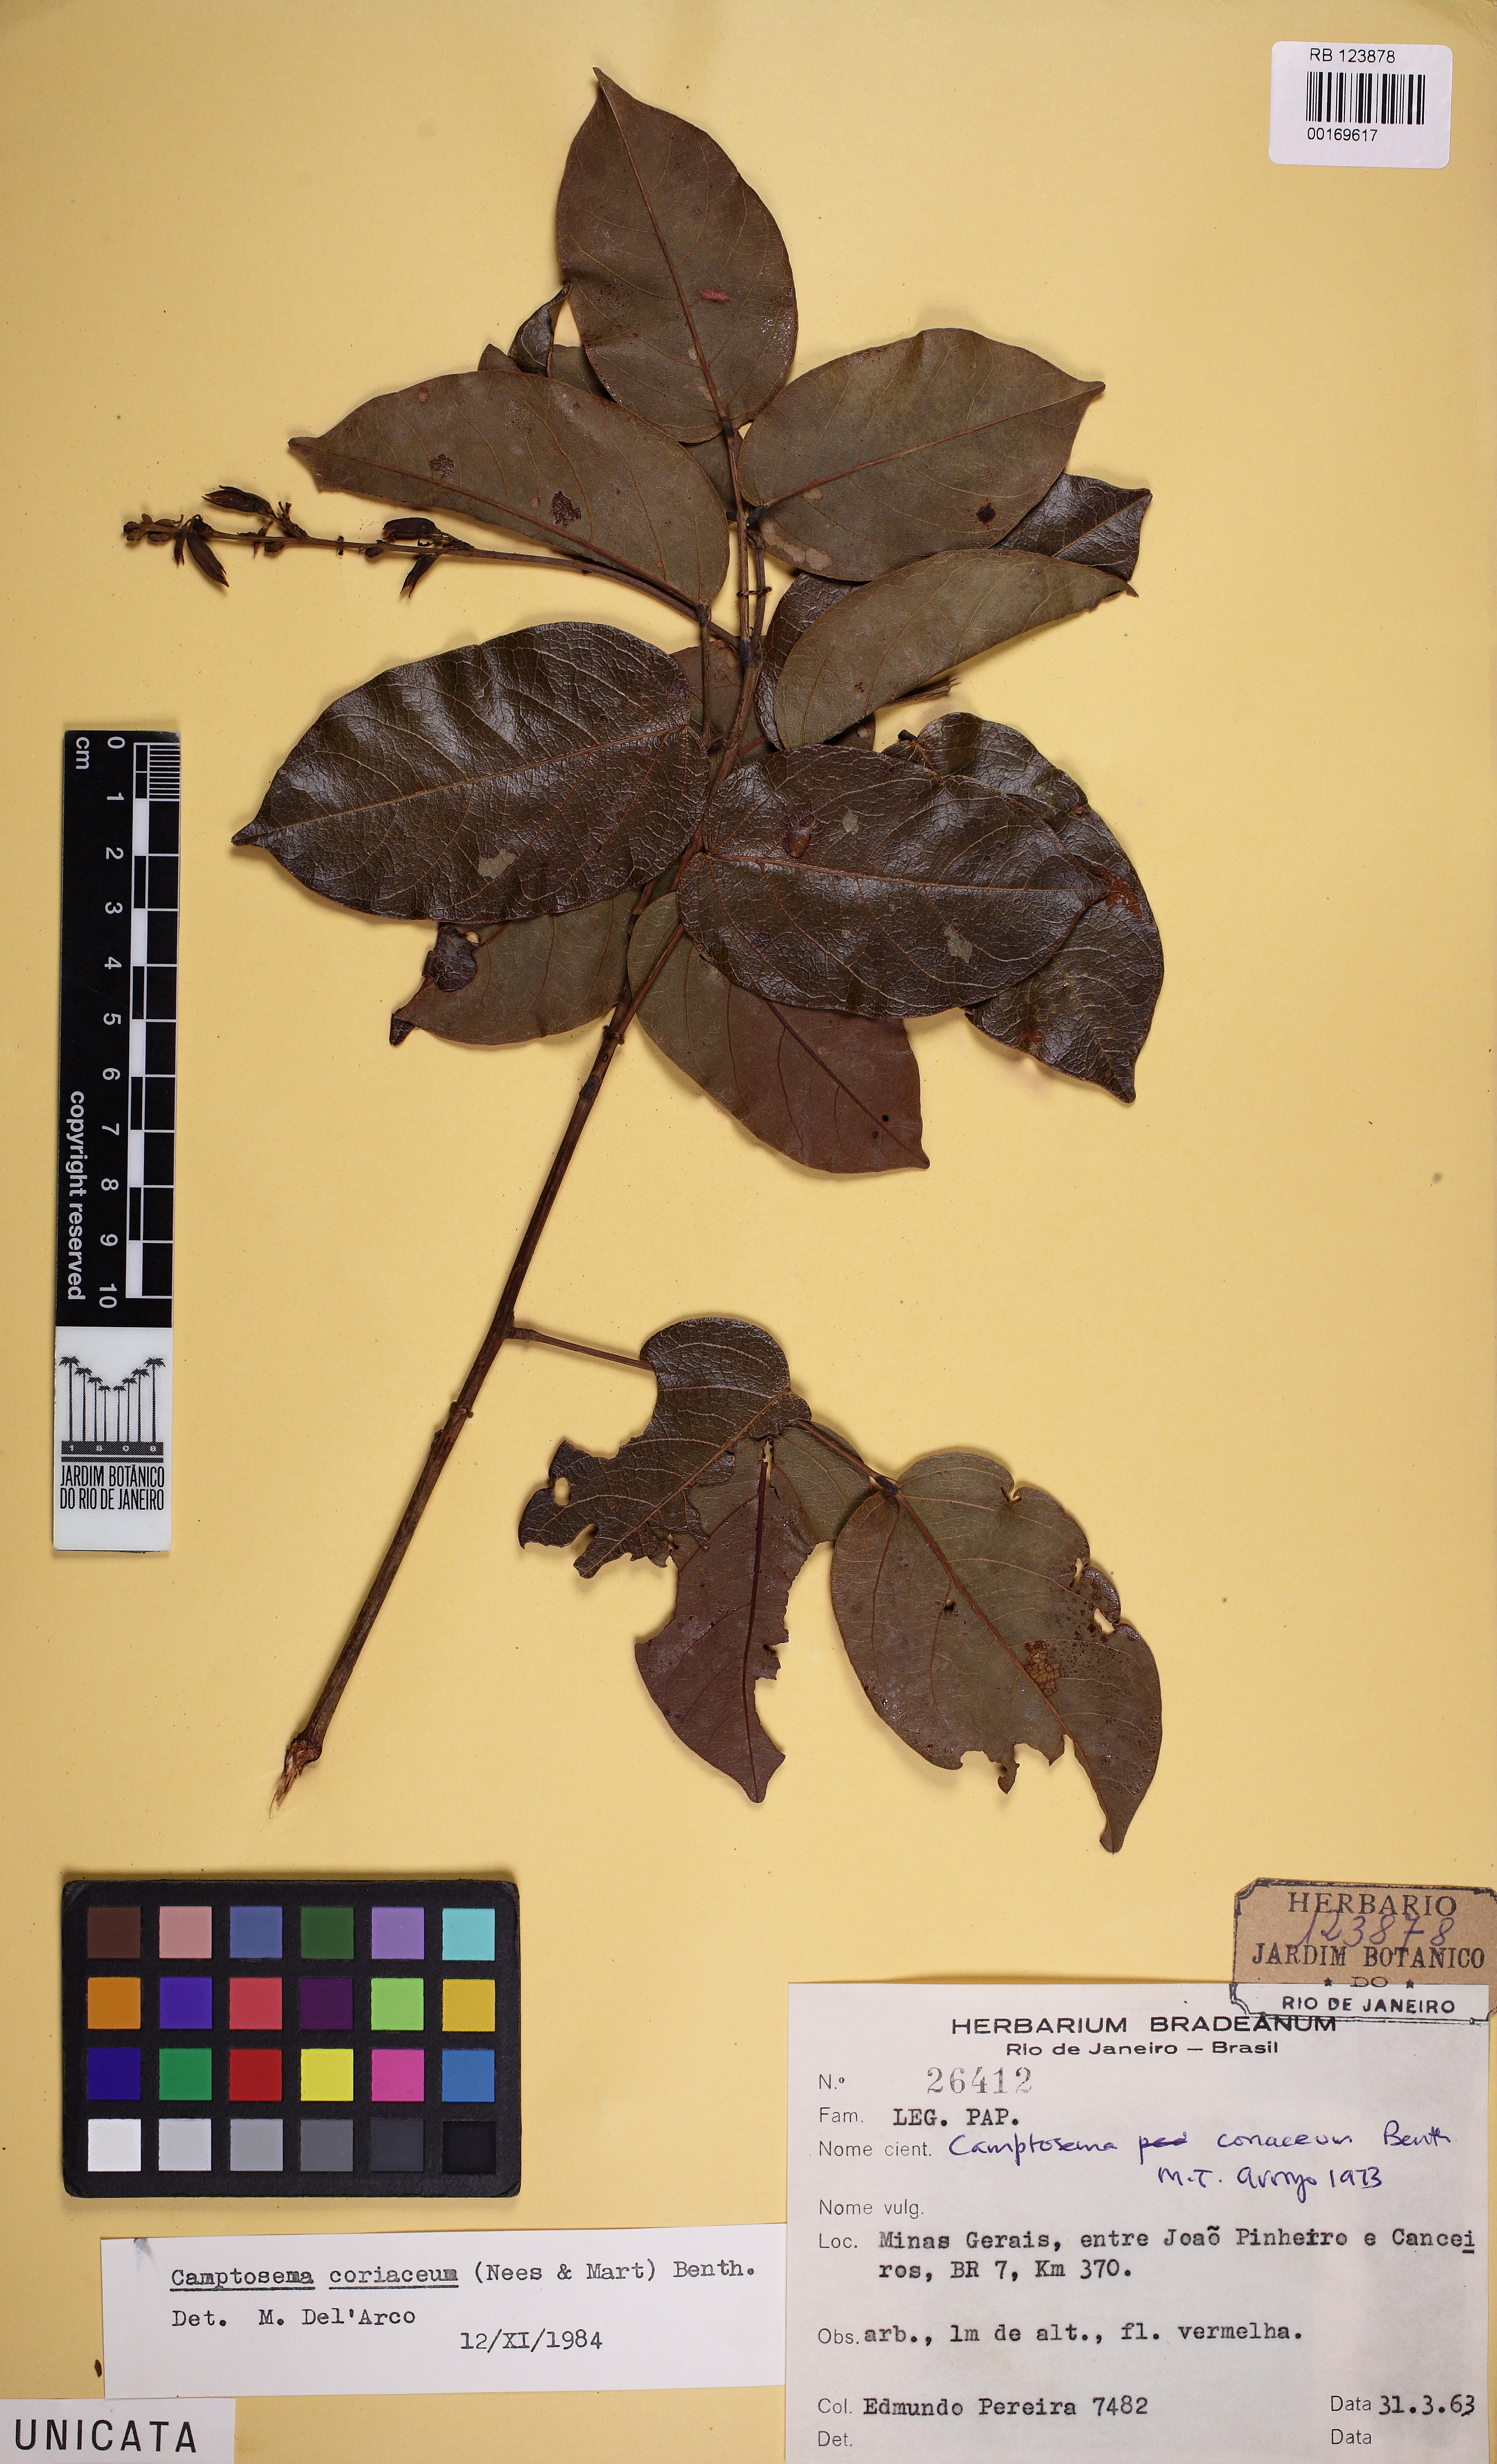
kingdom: Plantae
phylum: Tracheophyta
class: Magnoliopsida
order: Fabales
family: Fabaceae
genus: Camptosema
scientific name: Camptosema coriaceum
